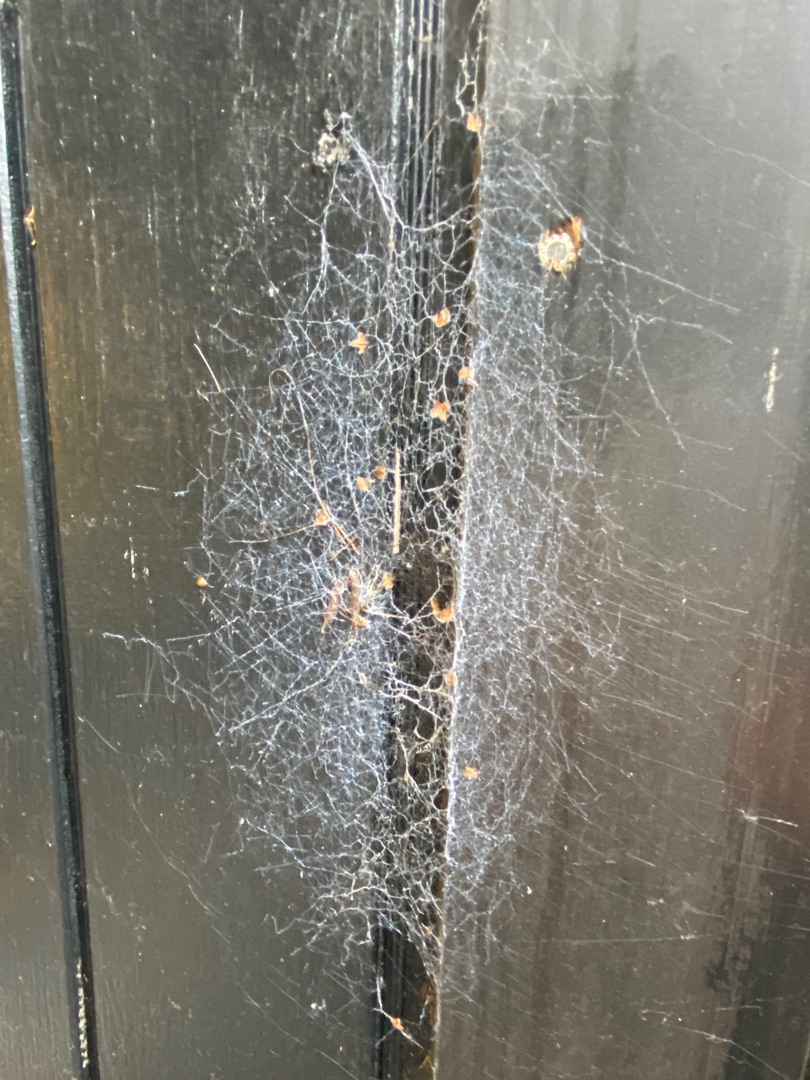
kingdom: Animalia
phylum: Arthropoda
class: Arachnida
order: Araneae
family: Amaurobiidae
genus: Amaurobius
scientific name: Amaurobius
